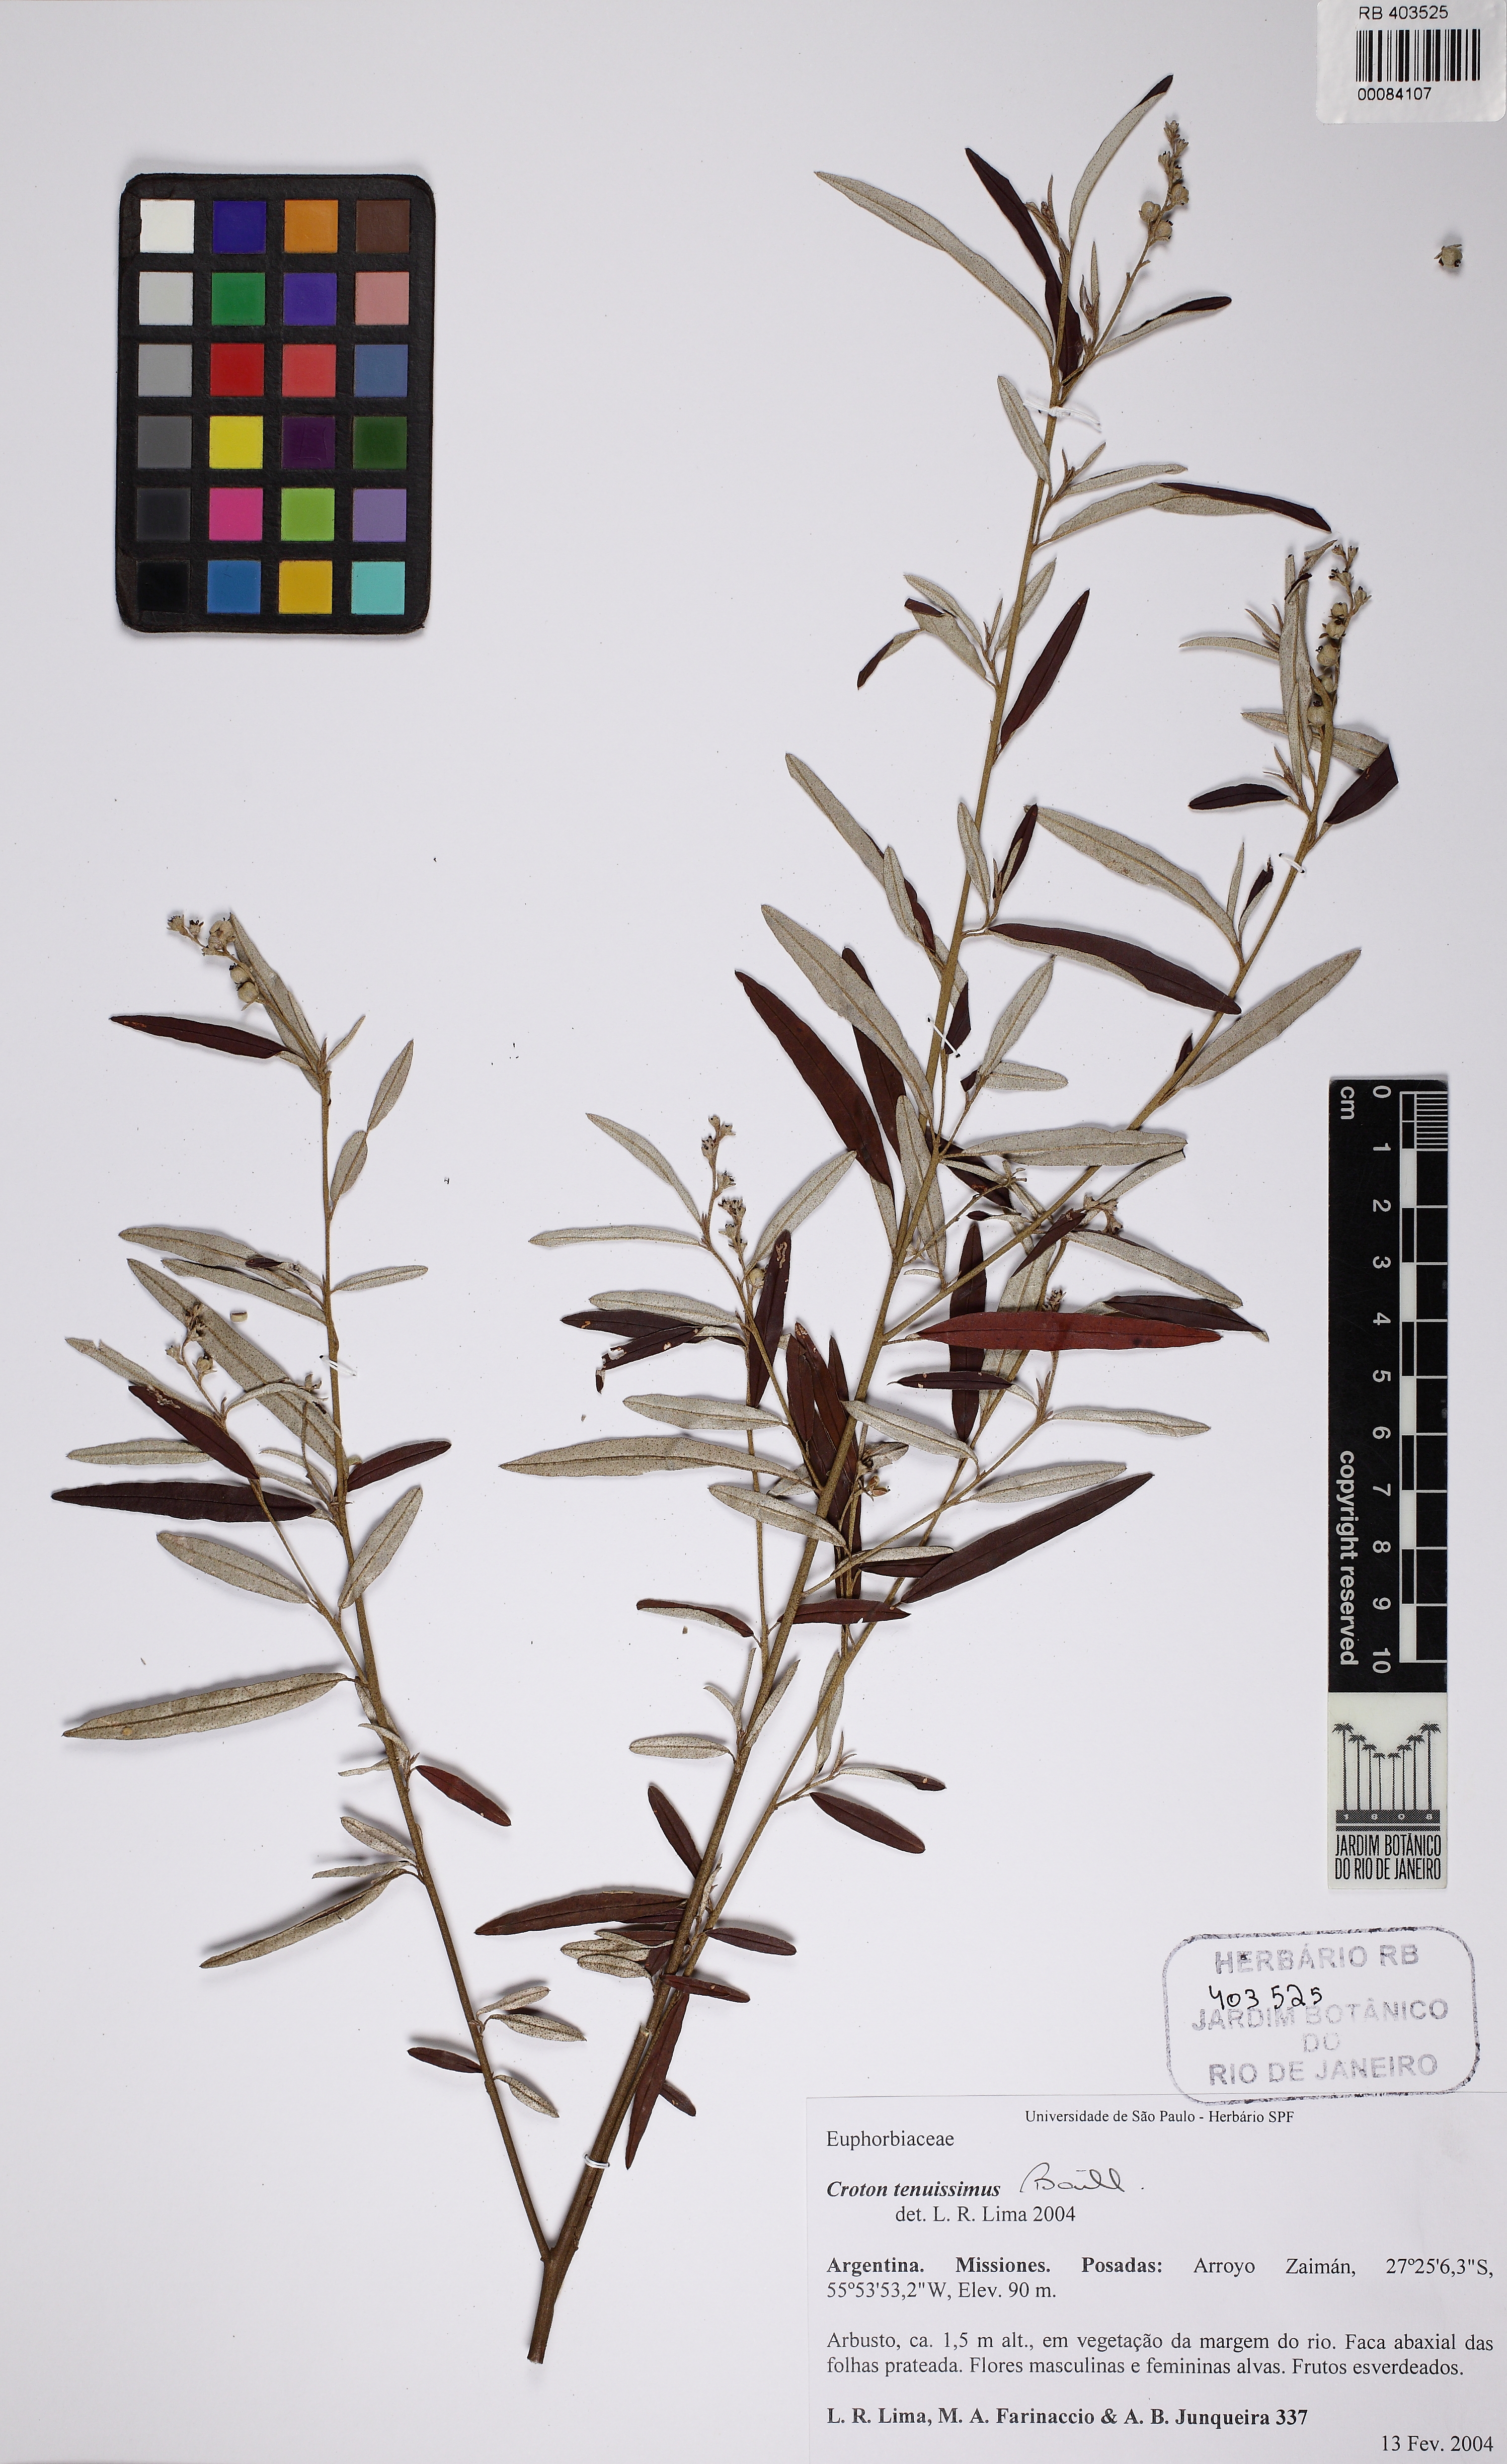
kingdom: Plantae
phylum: Tracheophyta
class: Magnoliopsida
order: Malpighiales
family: Euphorbiaceae
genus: Croton
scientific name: Croton uruguayensis
